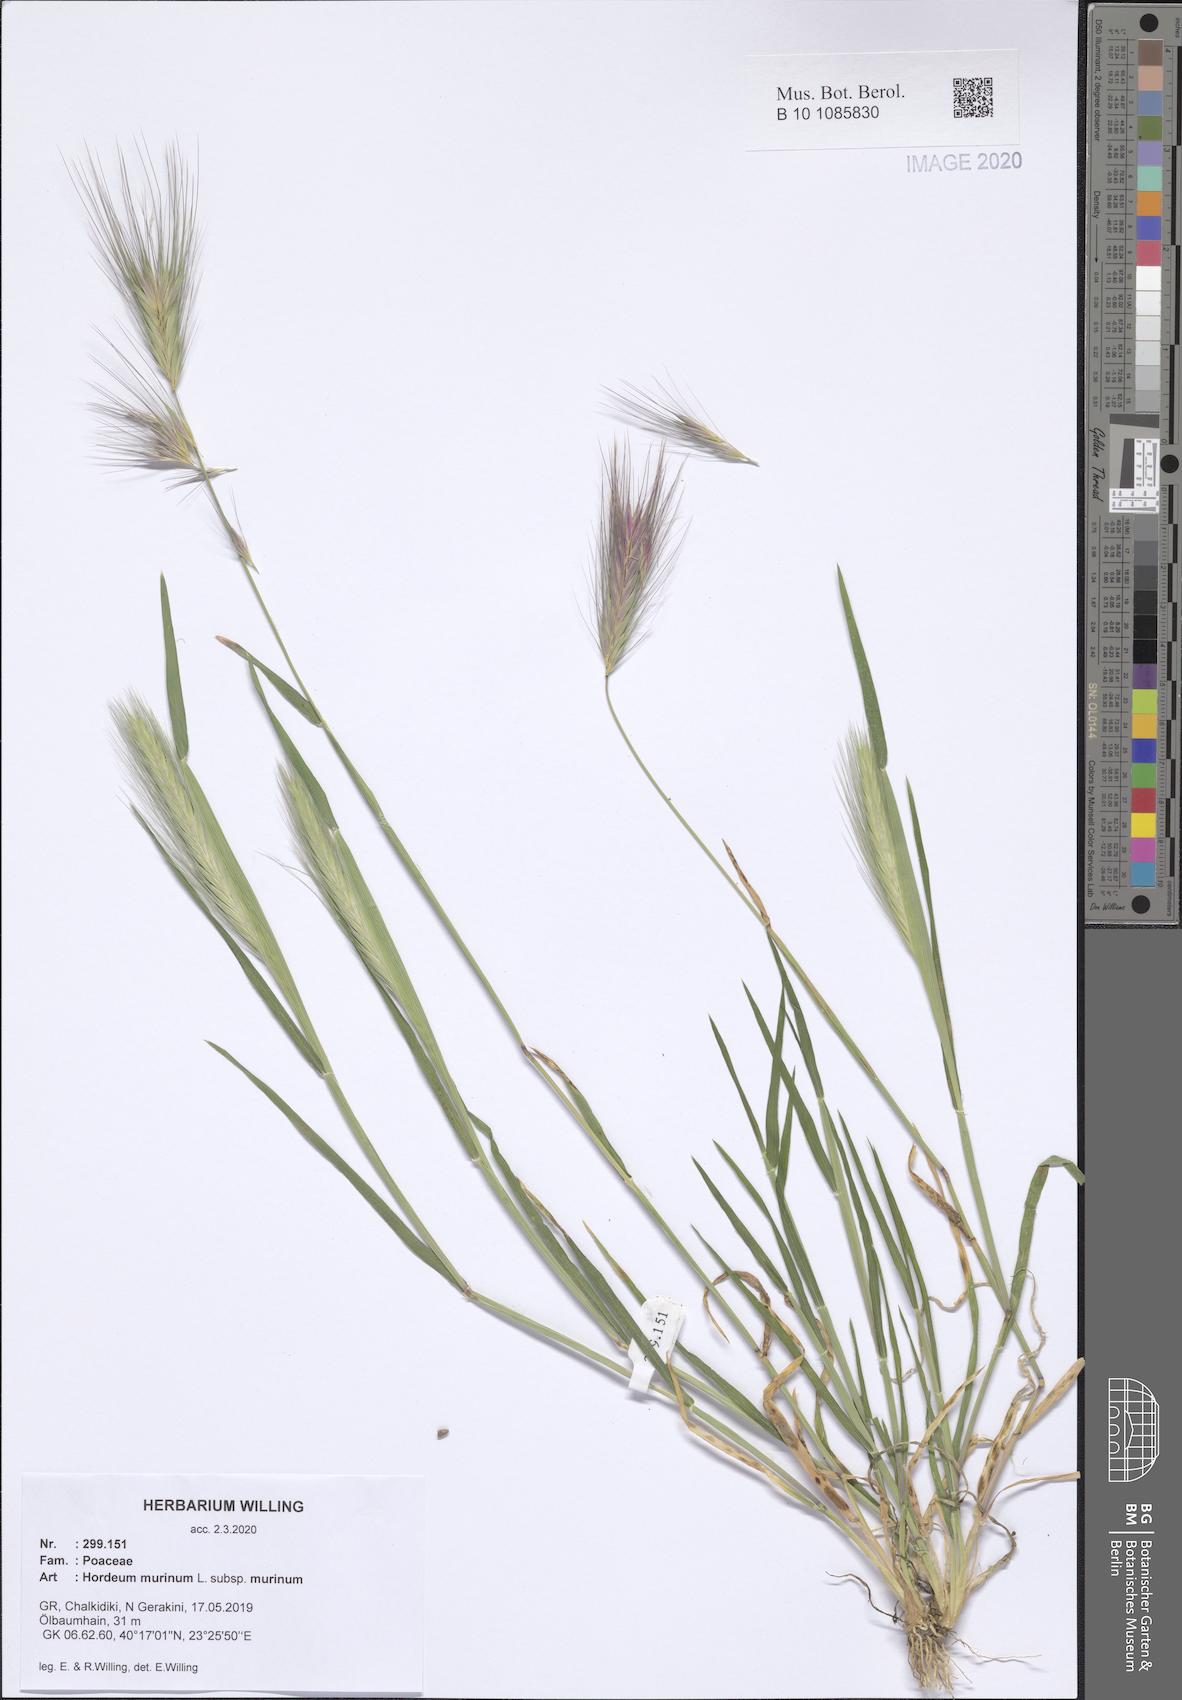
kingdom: Plantae
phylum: Tracheophyta
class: Liliopsida
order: Poales
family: Poaceae
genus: Hordeum
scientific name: Hordeum murinum
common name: Wall barley
